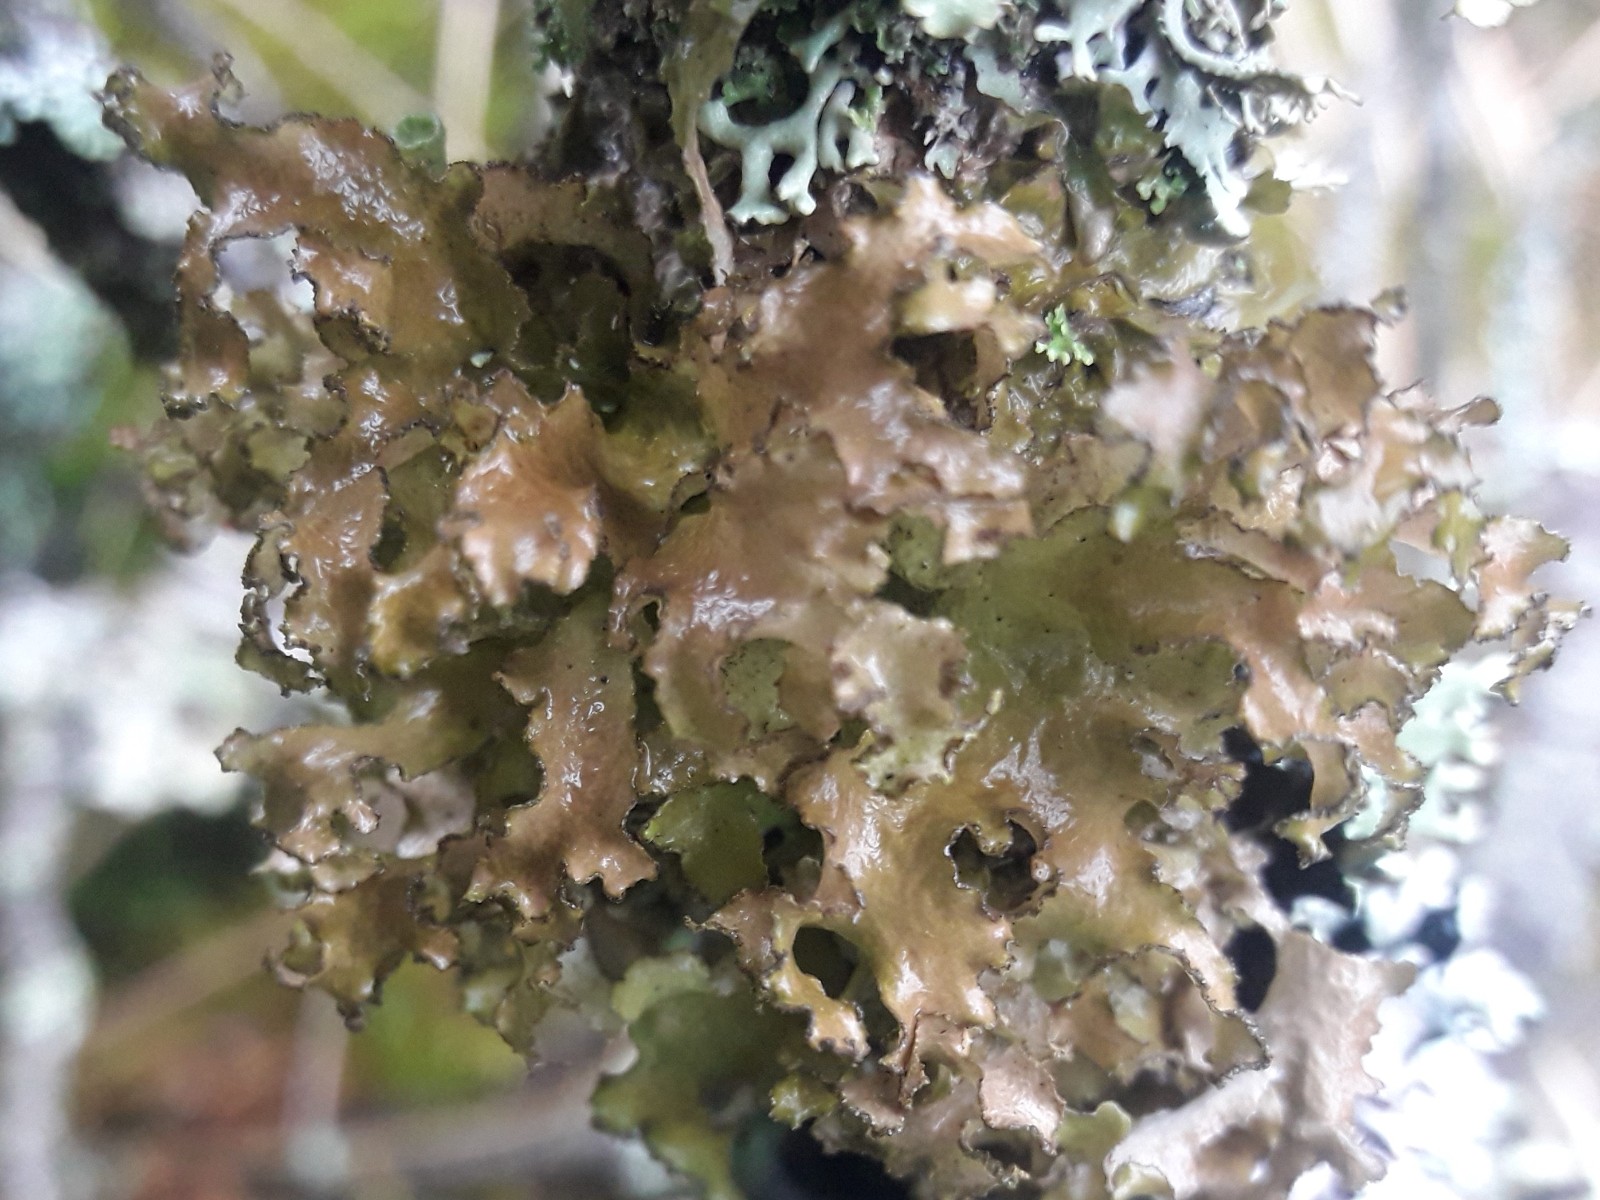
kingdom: Fungi
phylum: Ascomycota
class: Lecanoromycetes
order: Lecanorales
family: Parmeliaceae
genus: Nephromopsis
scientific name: Nephromopsis chlorophylla
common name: olivenbrun kruslav
